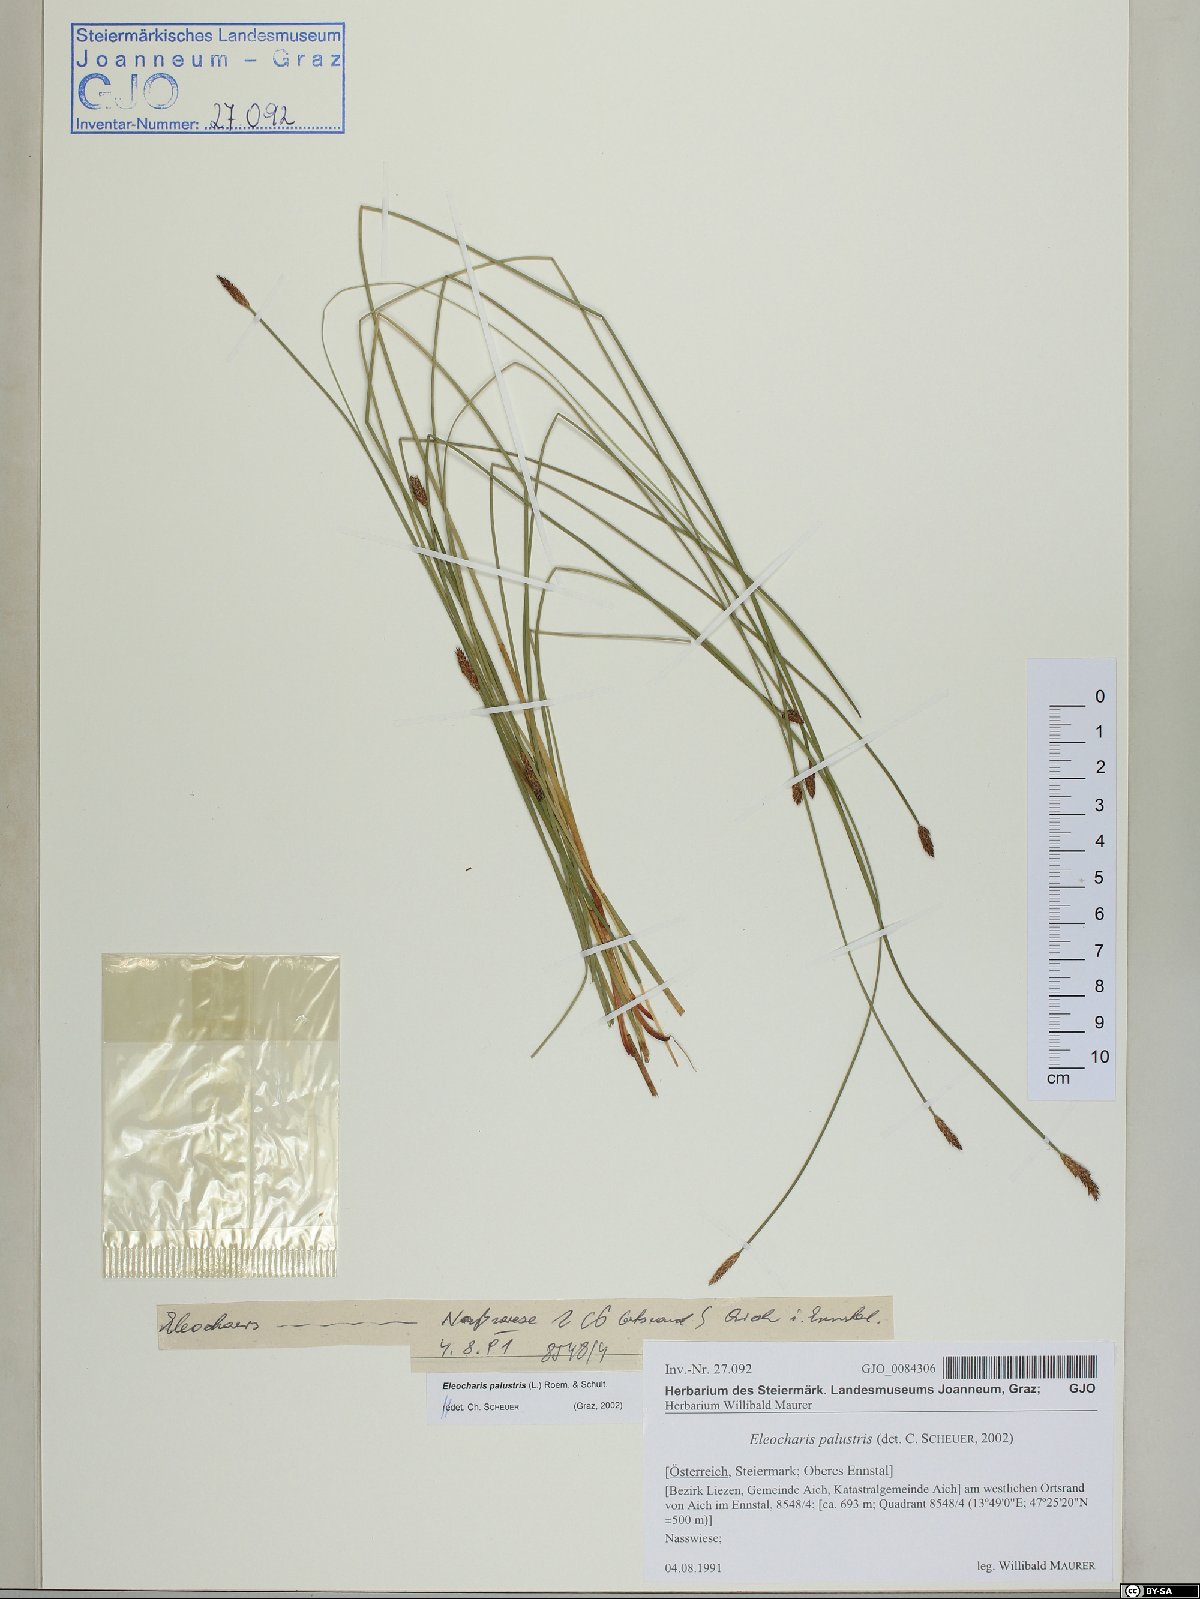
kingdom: Plantae
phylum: Tracheophyta
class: Liliopsida
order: Poales
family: Cyperaceae
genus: Eleocharis
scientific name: Eleocharis palustris
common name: Common spike-rush
